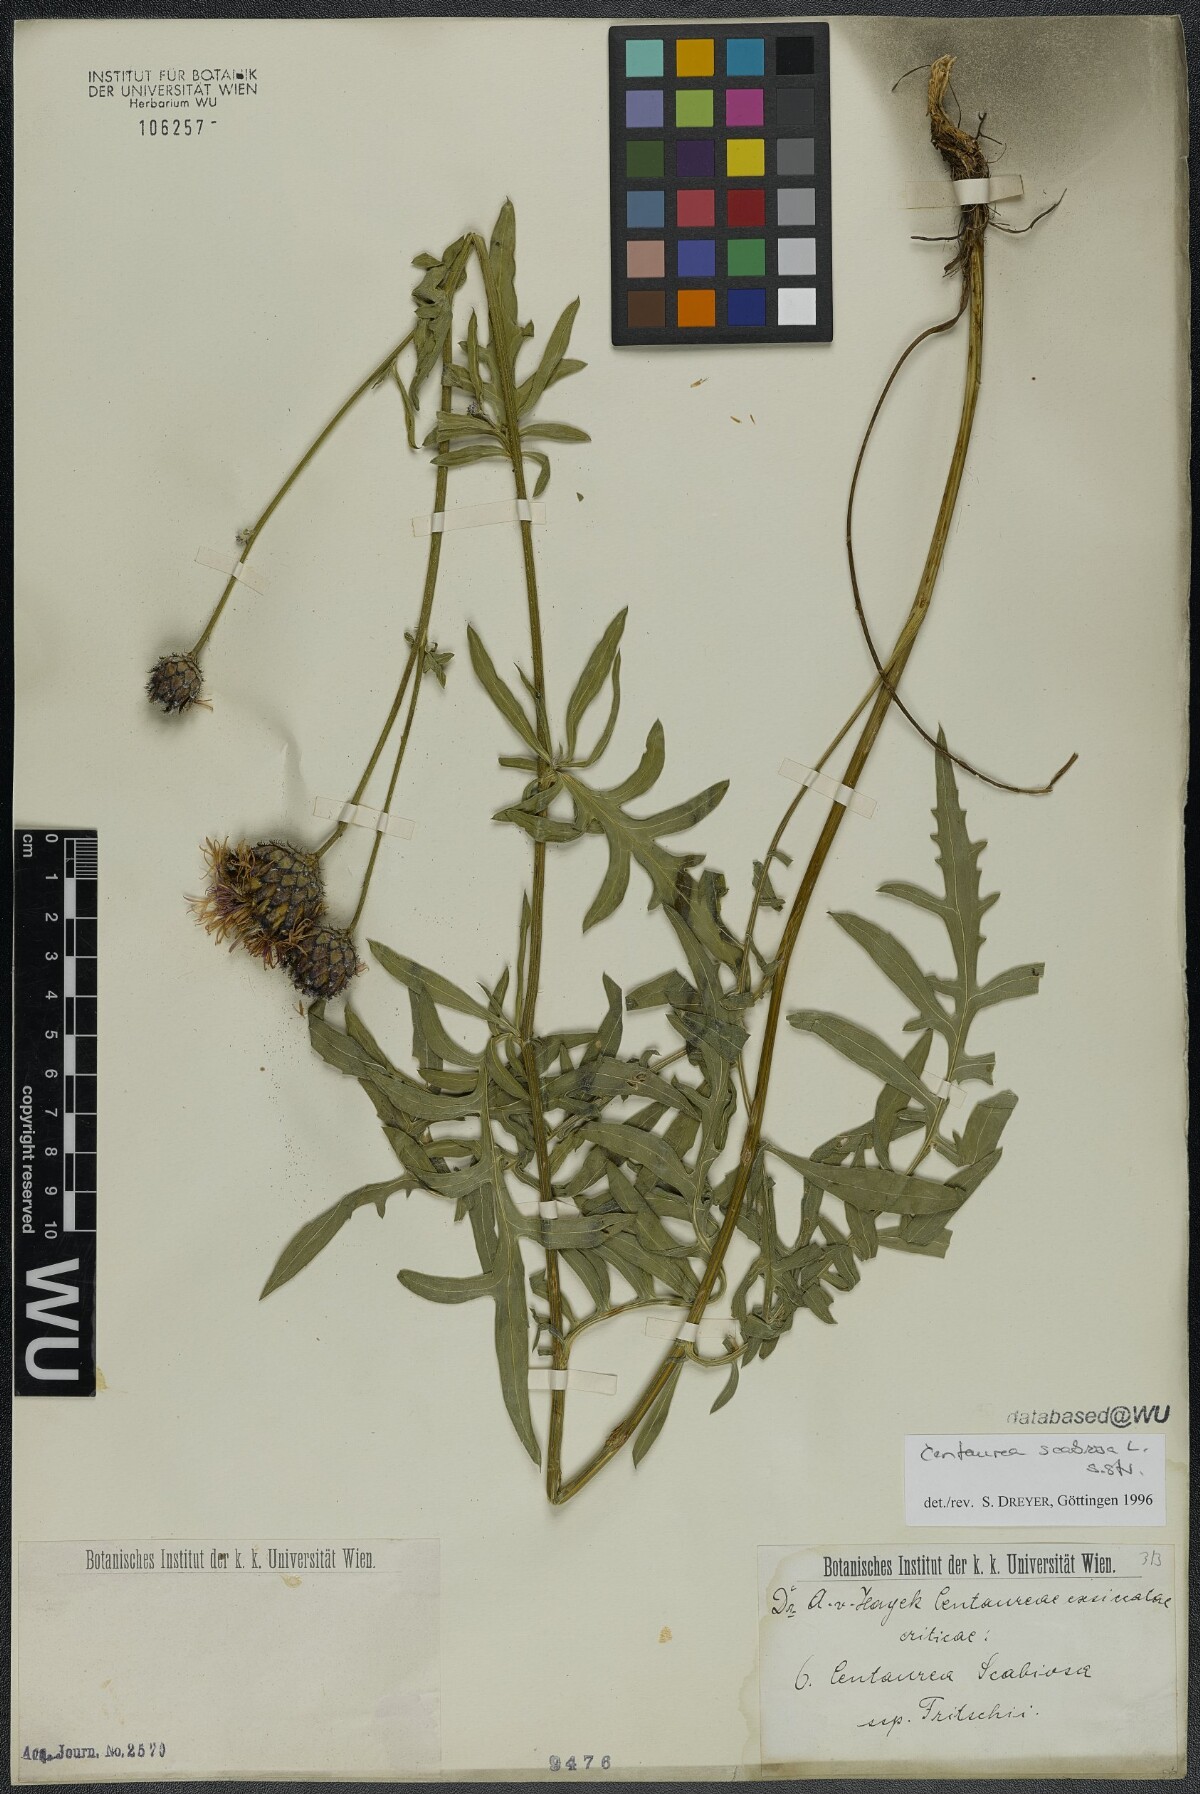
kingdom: Plantae
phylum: Tracheophyta
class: Magnoliopsida
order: Asterales
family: Asteraceae
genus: Centaurea
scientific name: Centaurea scabiosa
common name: Greater knapweed
